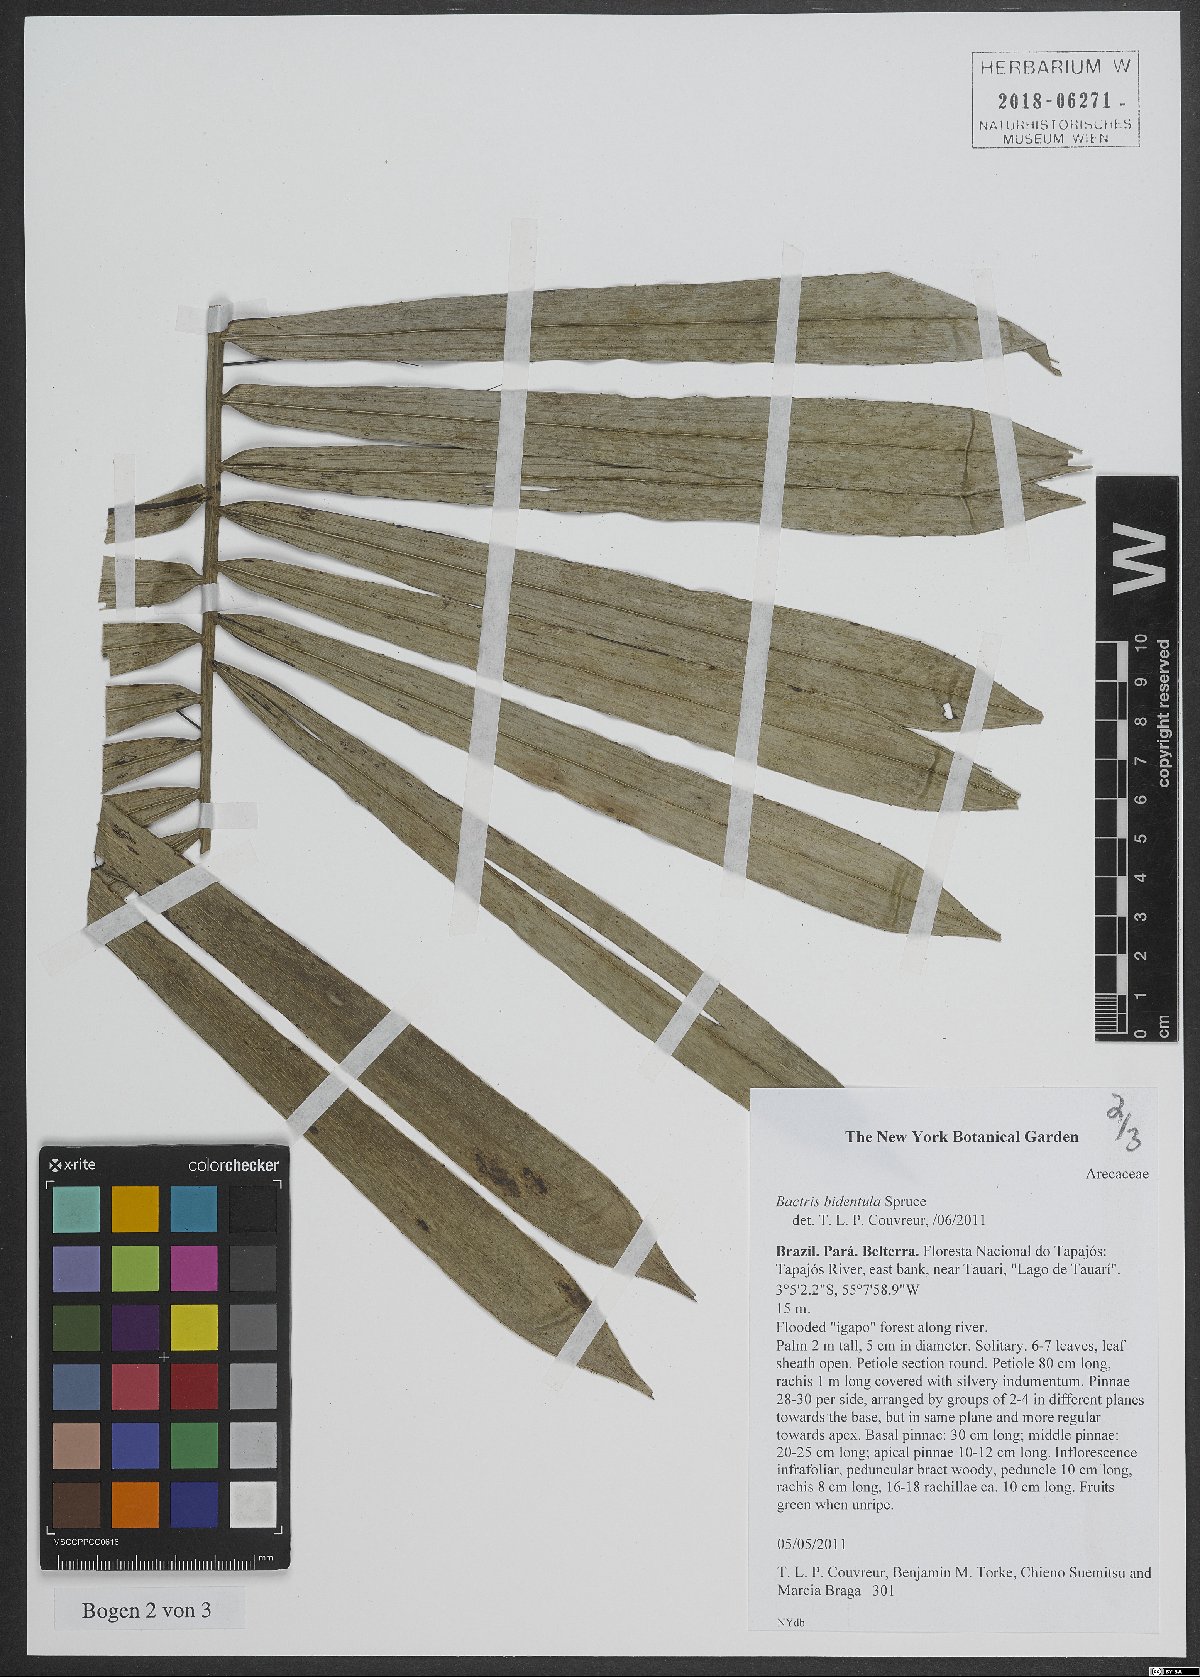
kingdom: Plantae
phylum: Tracheophyta
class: Liliopsida
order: Arecales
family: Arecaceae
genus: Bactris
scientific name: Bactris bidentula
